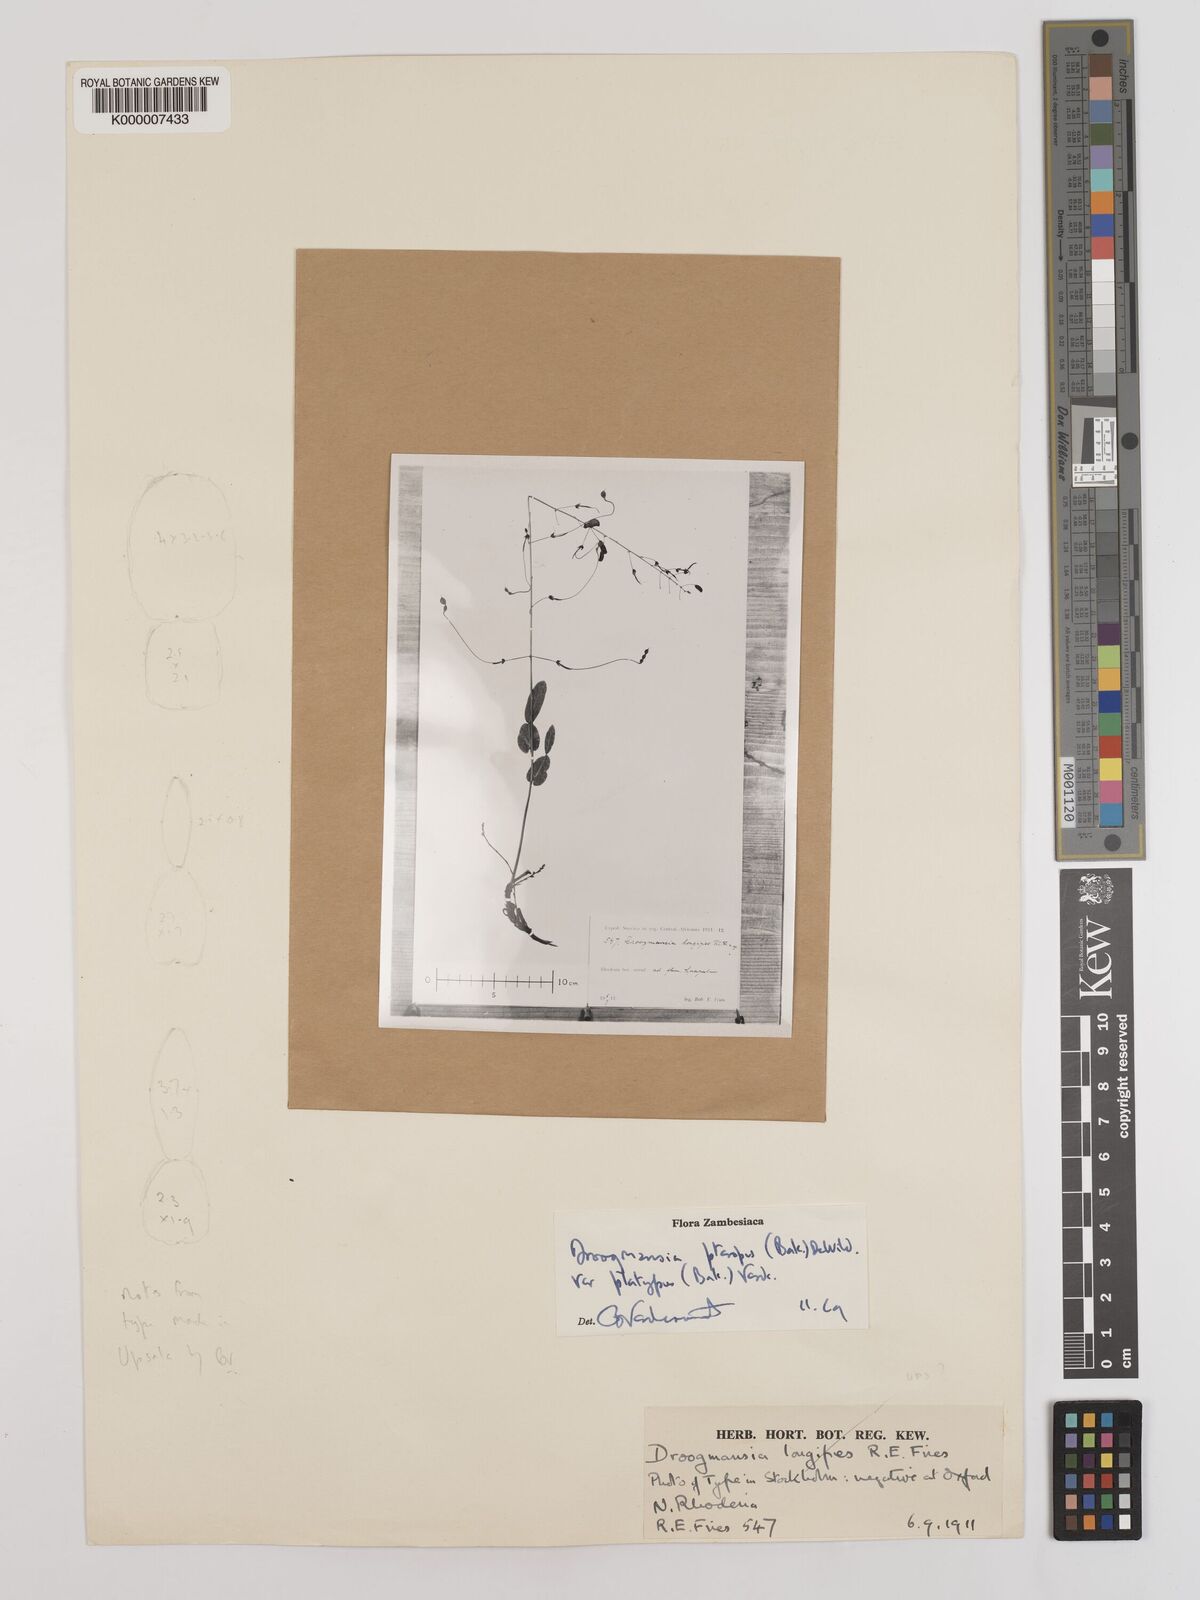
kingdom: Plantae
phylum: Tracheophyta
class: Magnoliopsida
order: Fabales
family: Fabaceae
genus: Droogmansia
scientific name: Droogmansia pteropus
